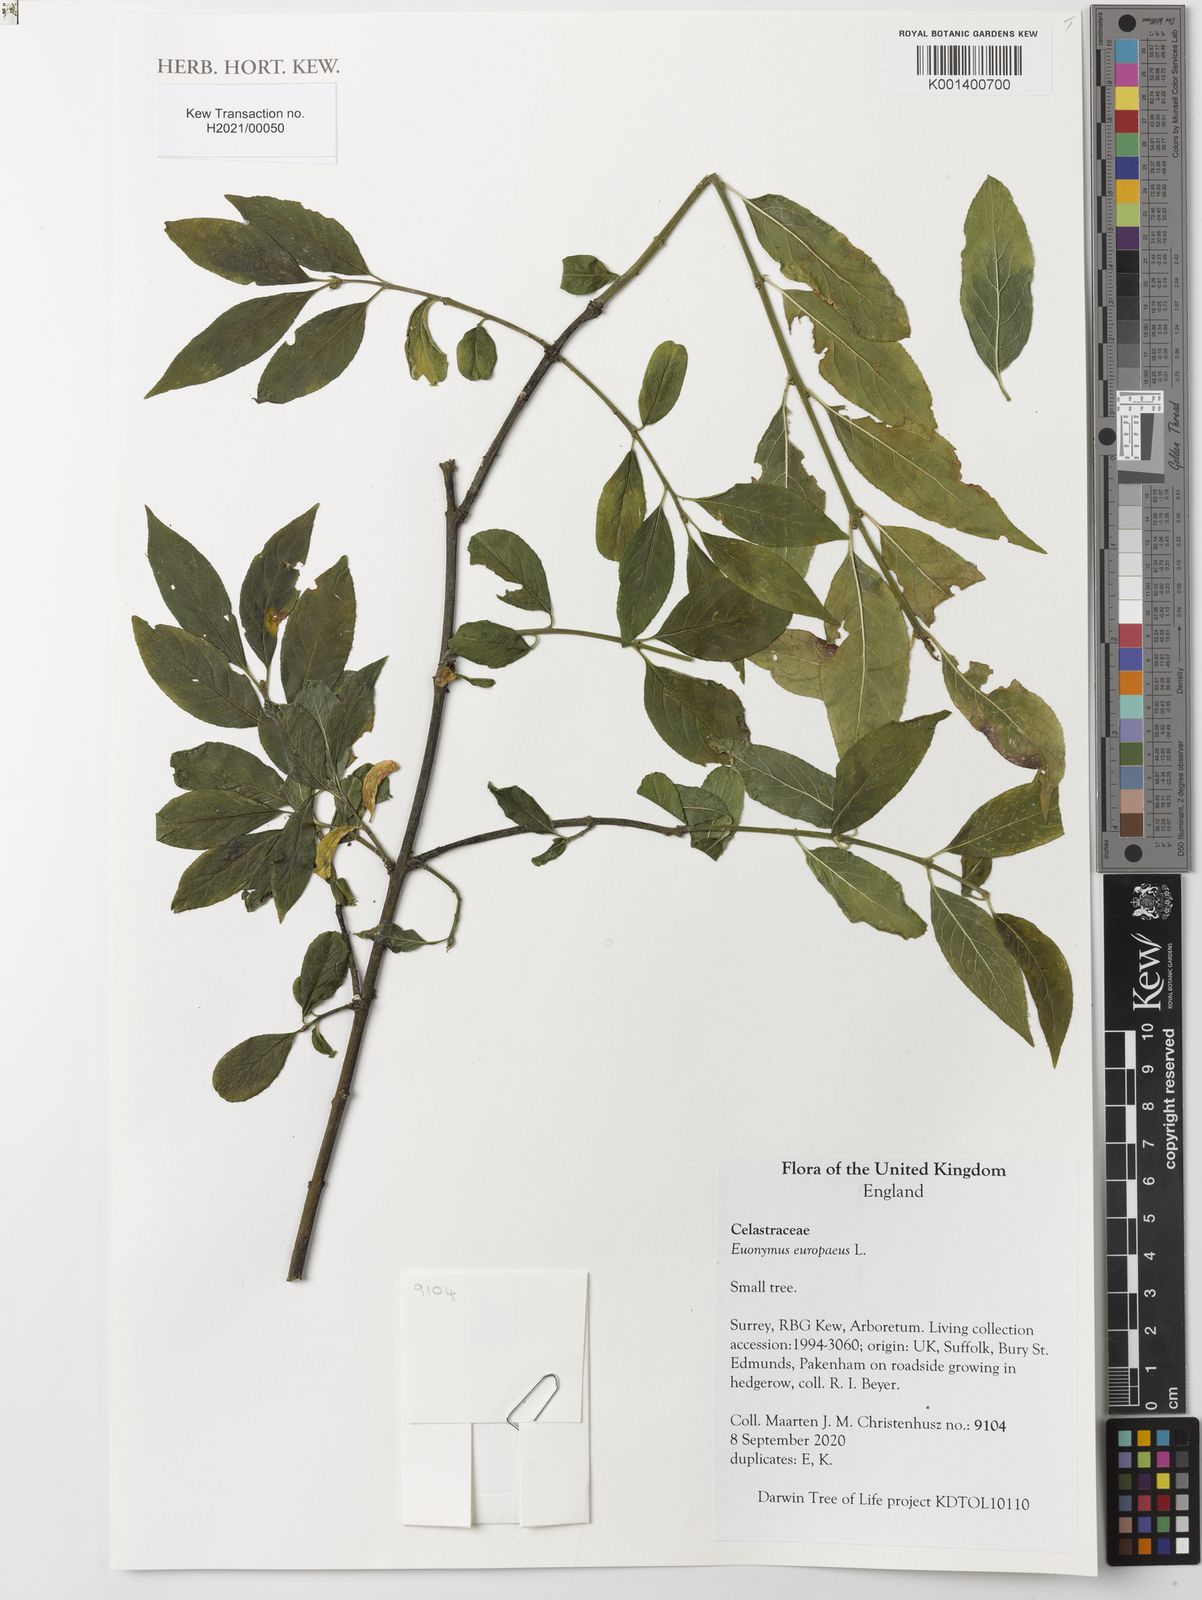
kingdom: Plantae
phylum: Tracheophyta
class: Magnoliopsida
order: Celastrales
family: Celastraceae
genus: Euonymus
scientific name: Euonymus europaeus
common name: Spindle
